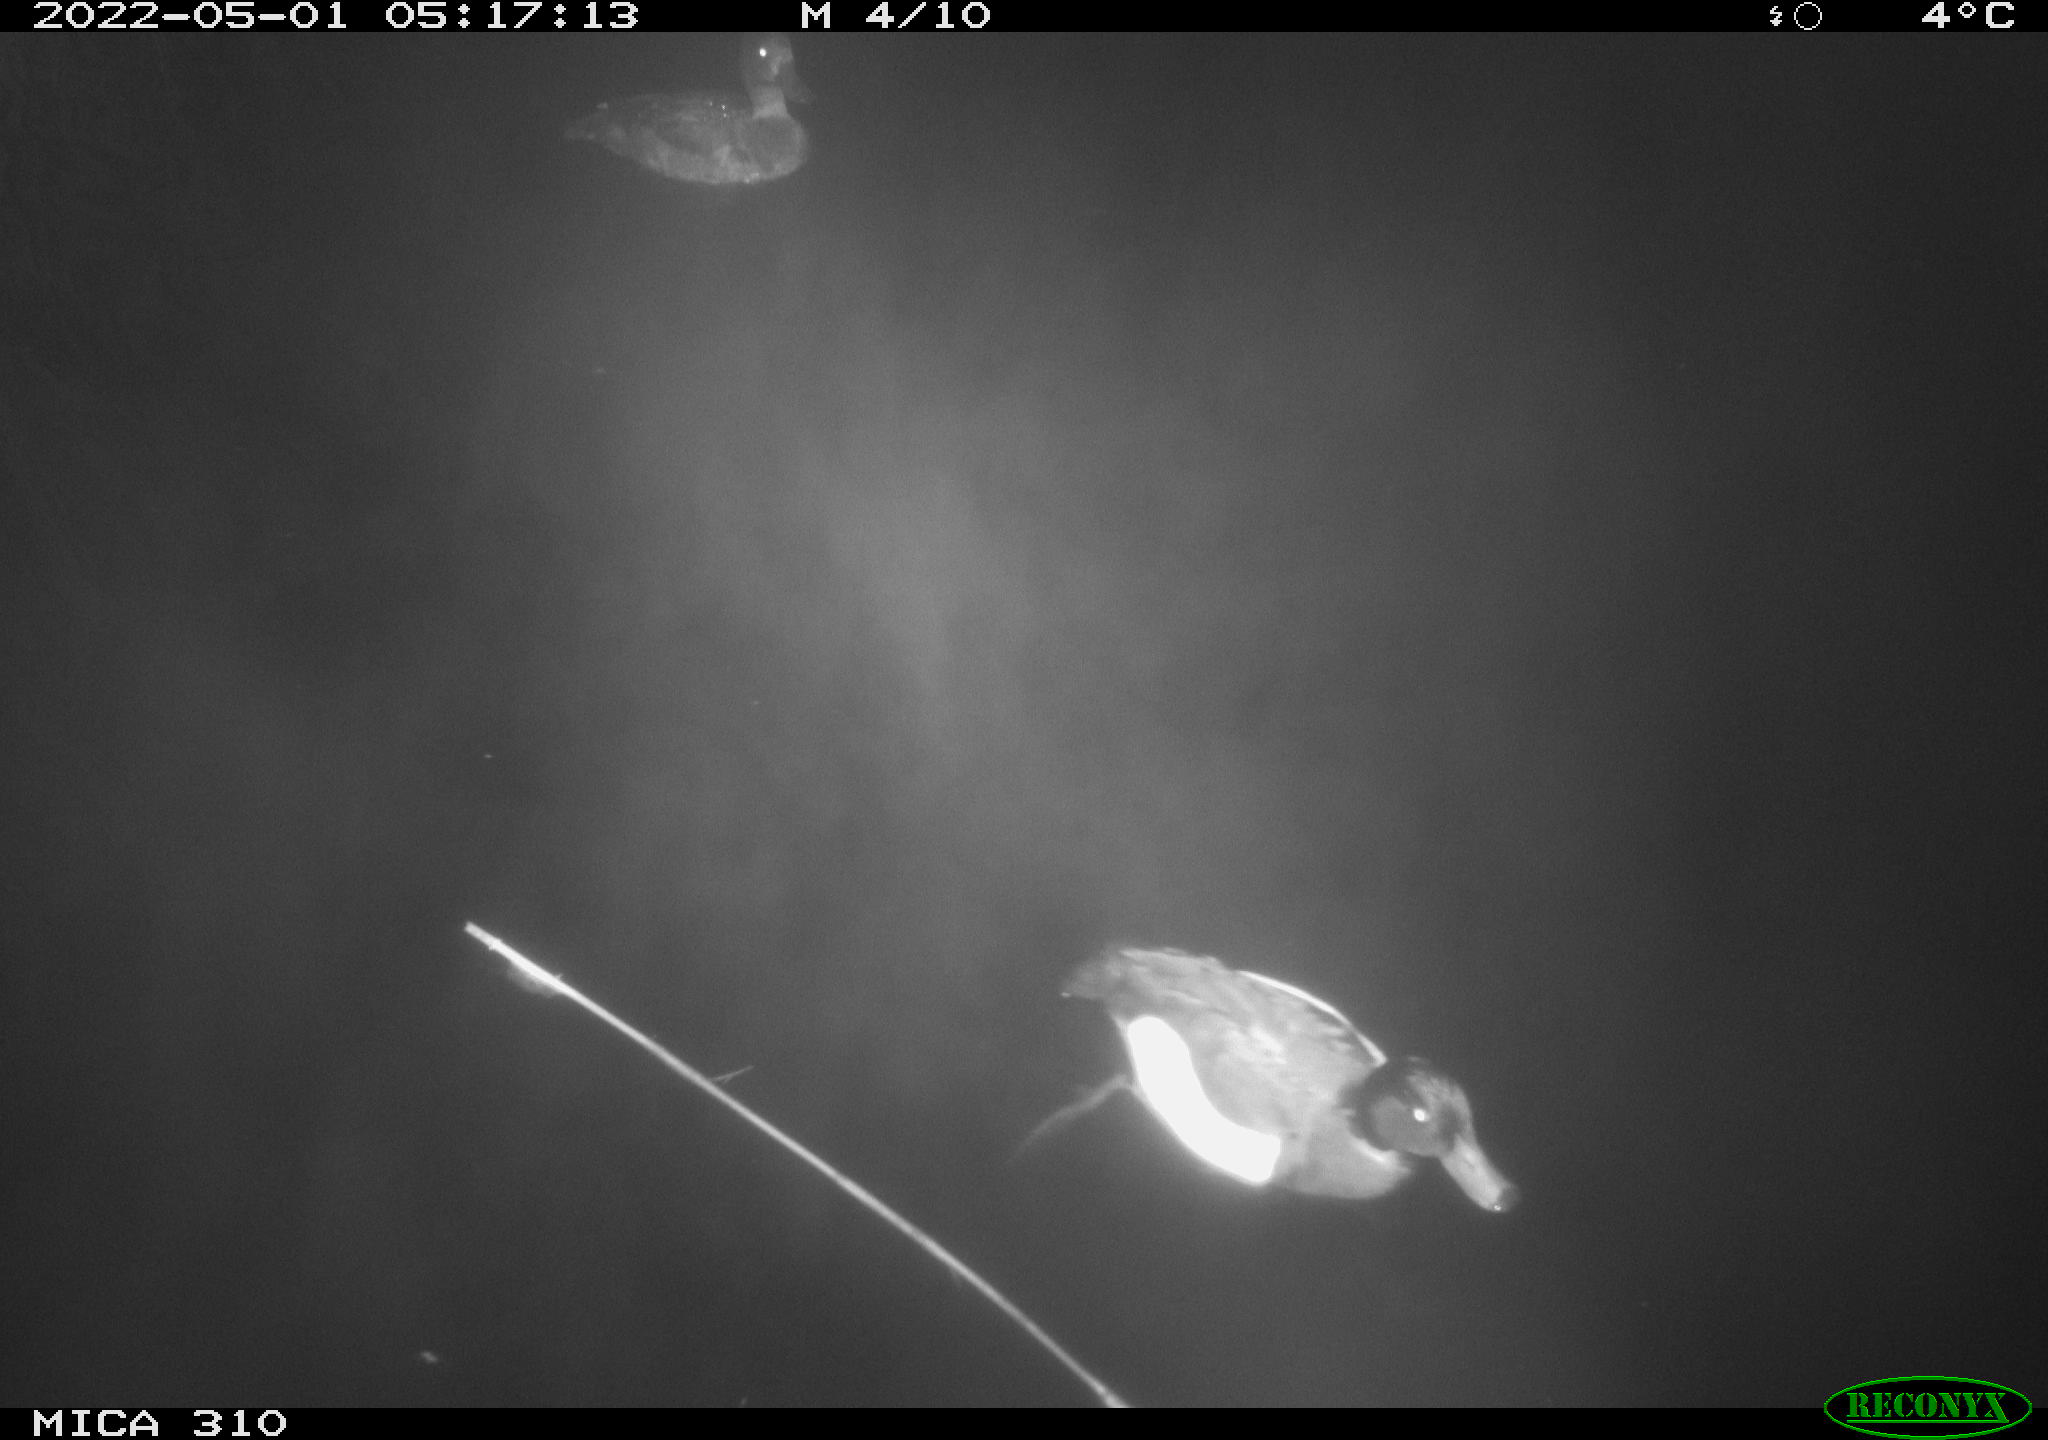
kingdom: Animalia
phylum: Chordata
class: Aves
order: Anseriformes
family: Anatidae
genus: Anas
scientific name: Anas platyrhynchos
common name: Mallard
